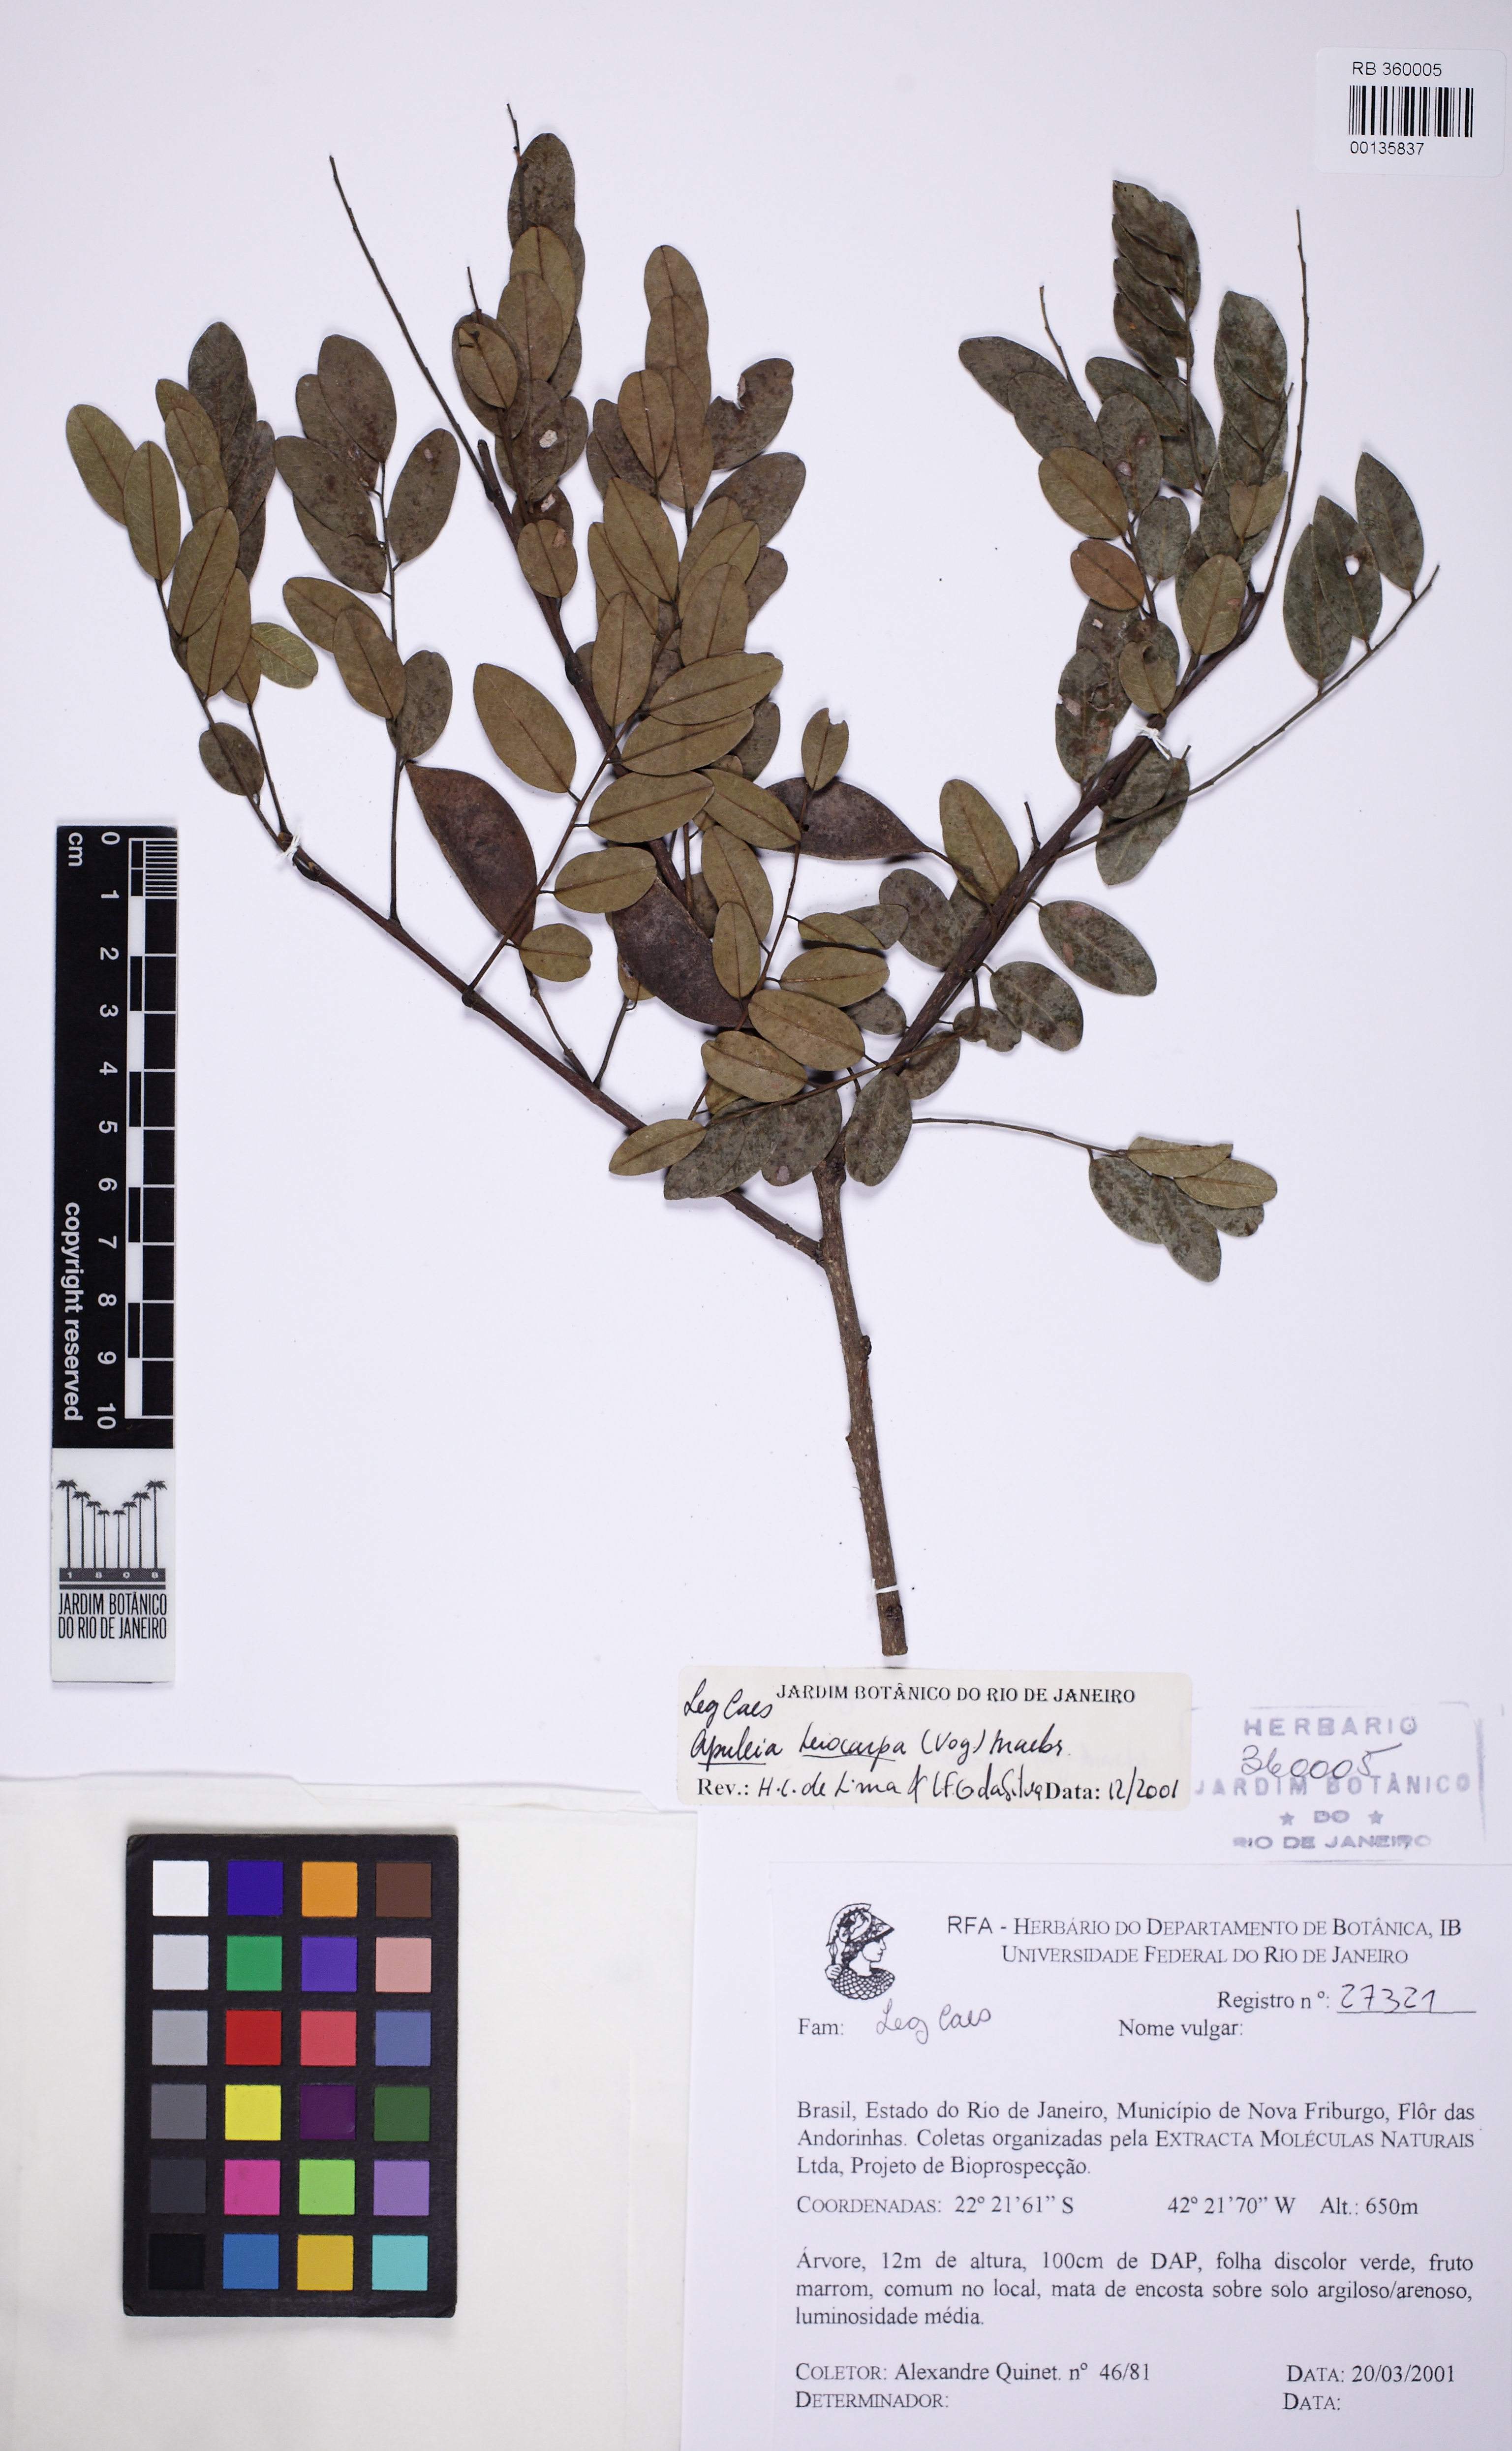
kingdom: Plantae
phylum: Tracheophyta
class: Magnoliopsida
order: Fabales
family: Fabaceae
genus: Apuleia
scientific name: Apuleia leiocarpa
